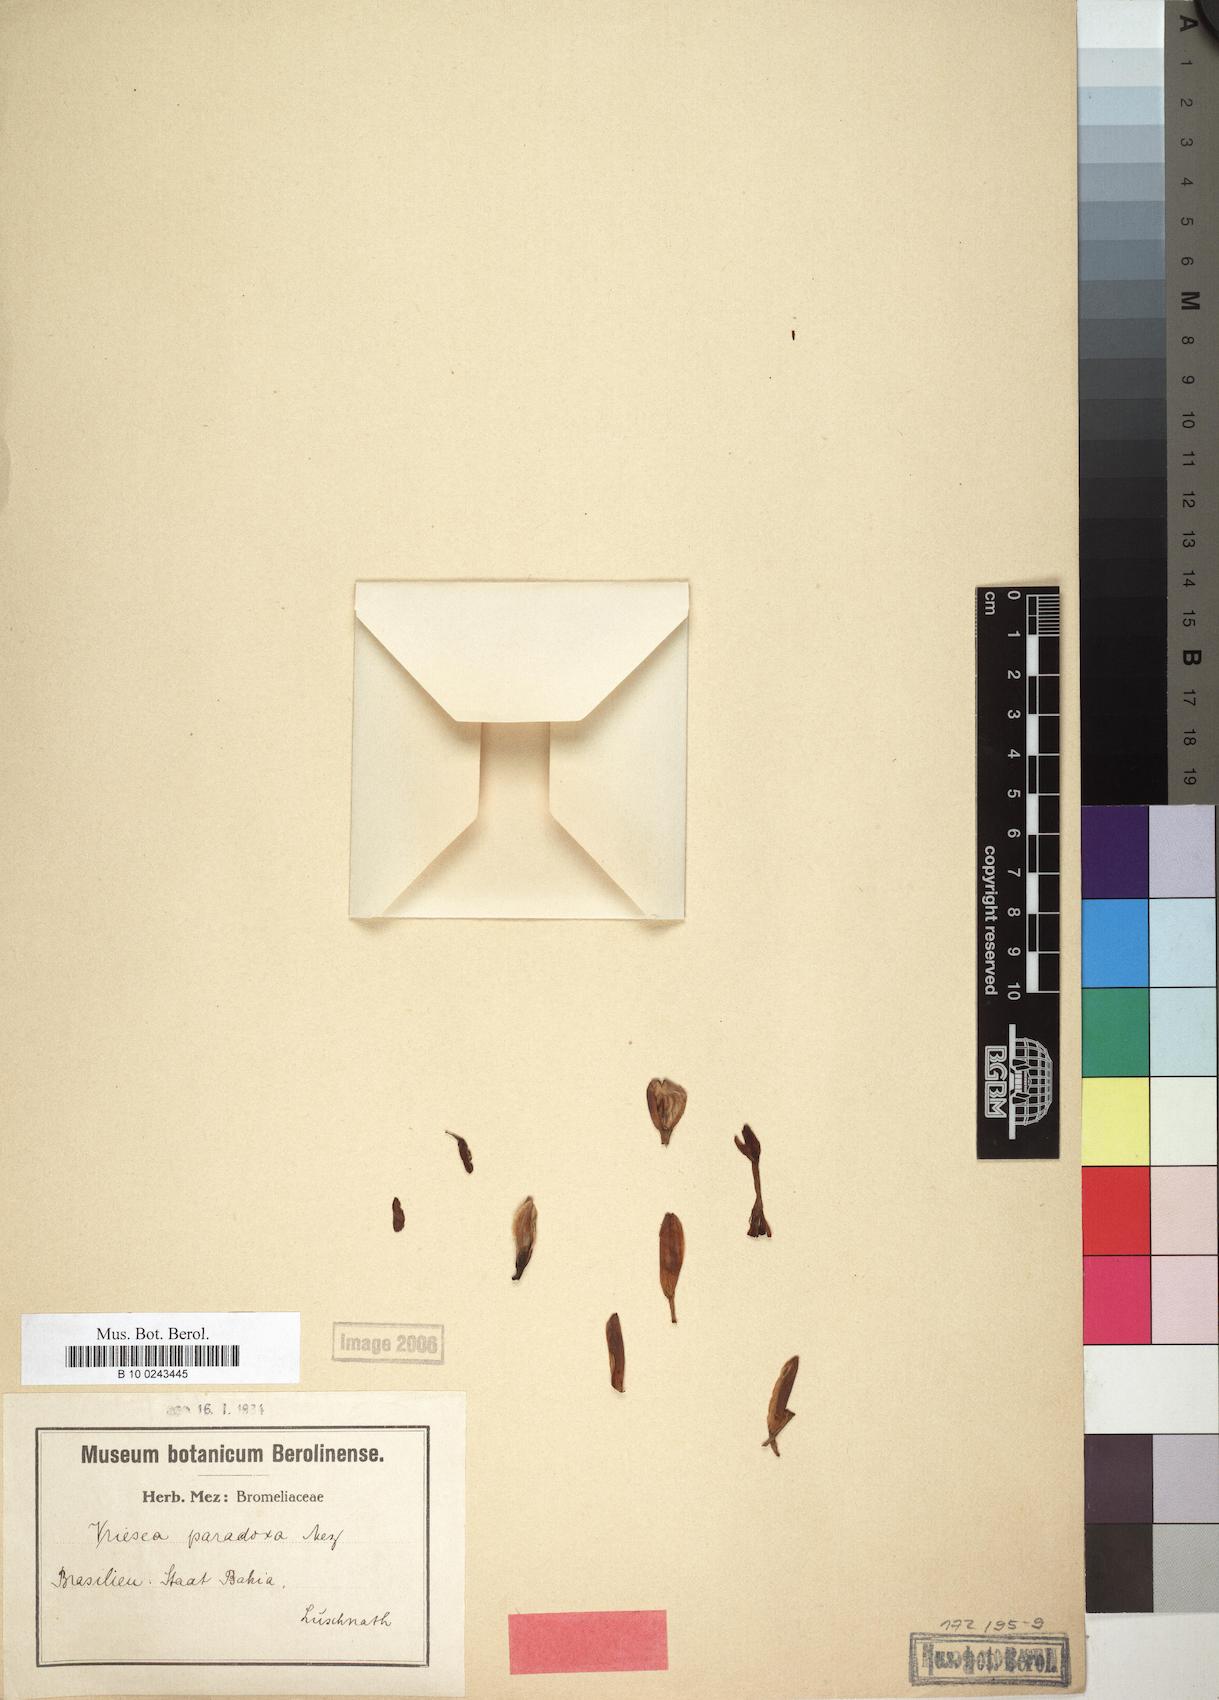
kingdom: Plantae
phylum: Tracheophyta
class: Liliopsida
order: Poales
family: Bromeliaceae
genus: Vriesea
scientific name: Vriesea paradoxa
